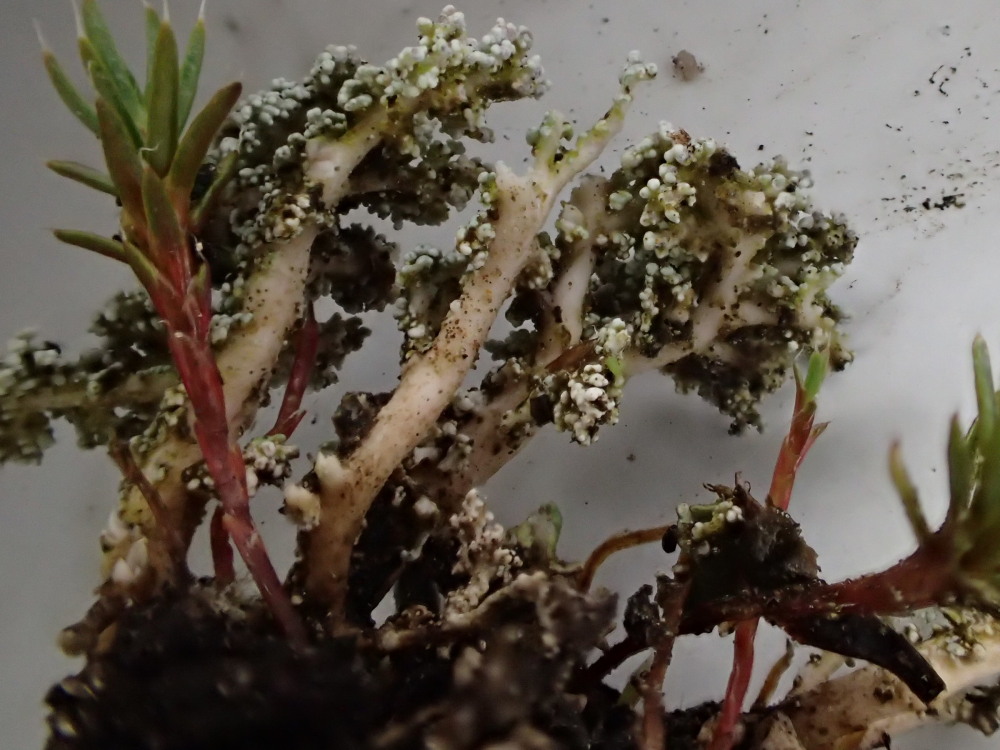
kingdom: Fungi
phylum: Ascomycota
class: Lecanoromycetes
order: Lecanorales
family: Stereocaulaceae
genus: Stereocaulon
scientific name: Stereocaulon saxatile
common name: klit-korallav
